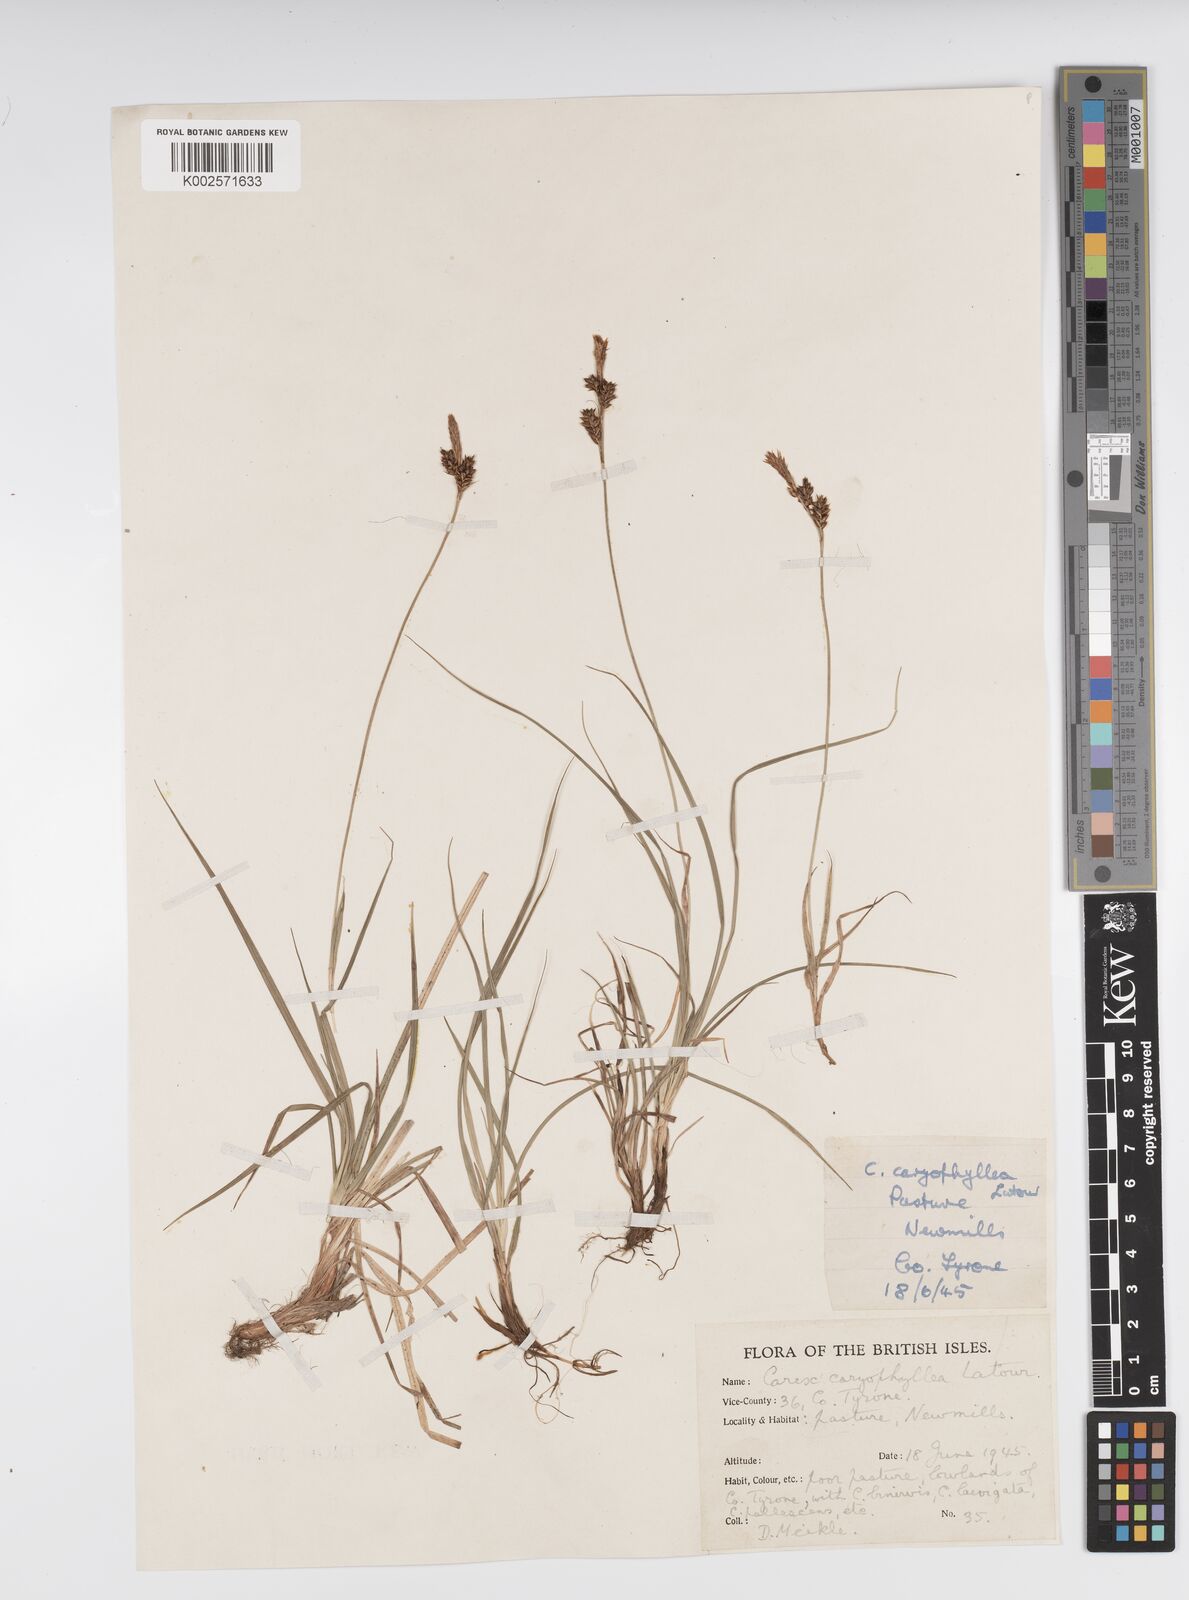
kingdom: Plantae
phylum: Tracheophyta
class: Liliopsida
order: Poales
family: Cyperaceae
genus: Carex
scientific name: Carex caryophyllea
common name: Spring sedge
